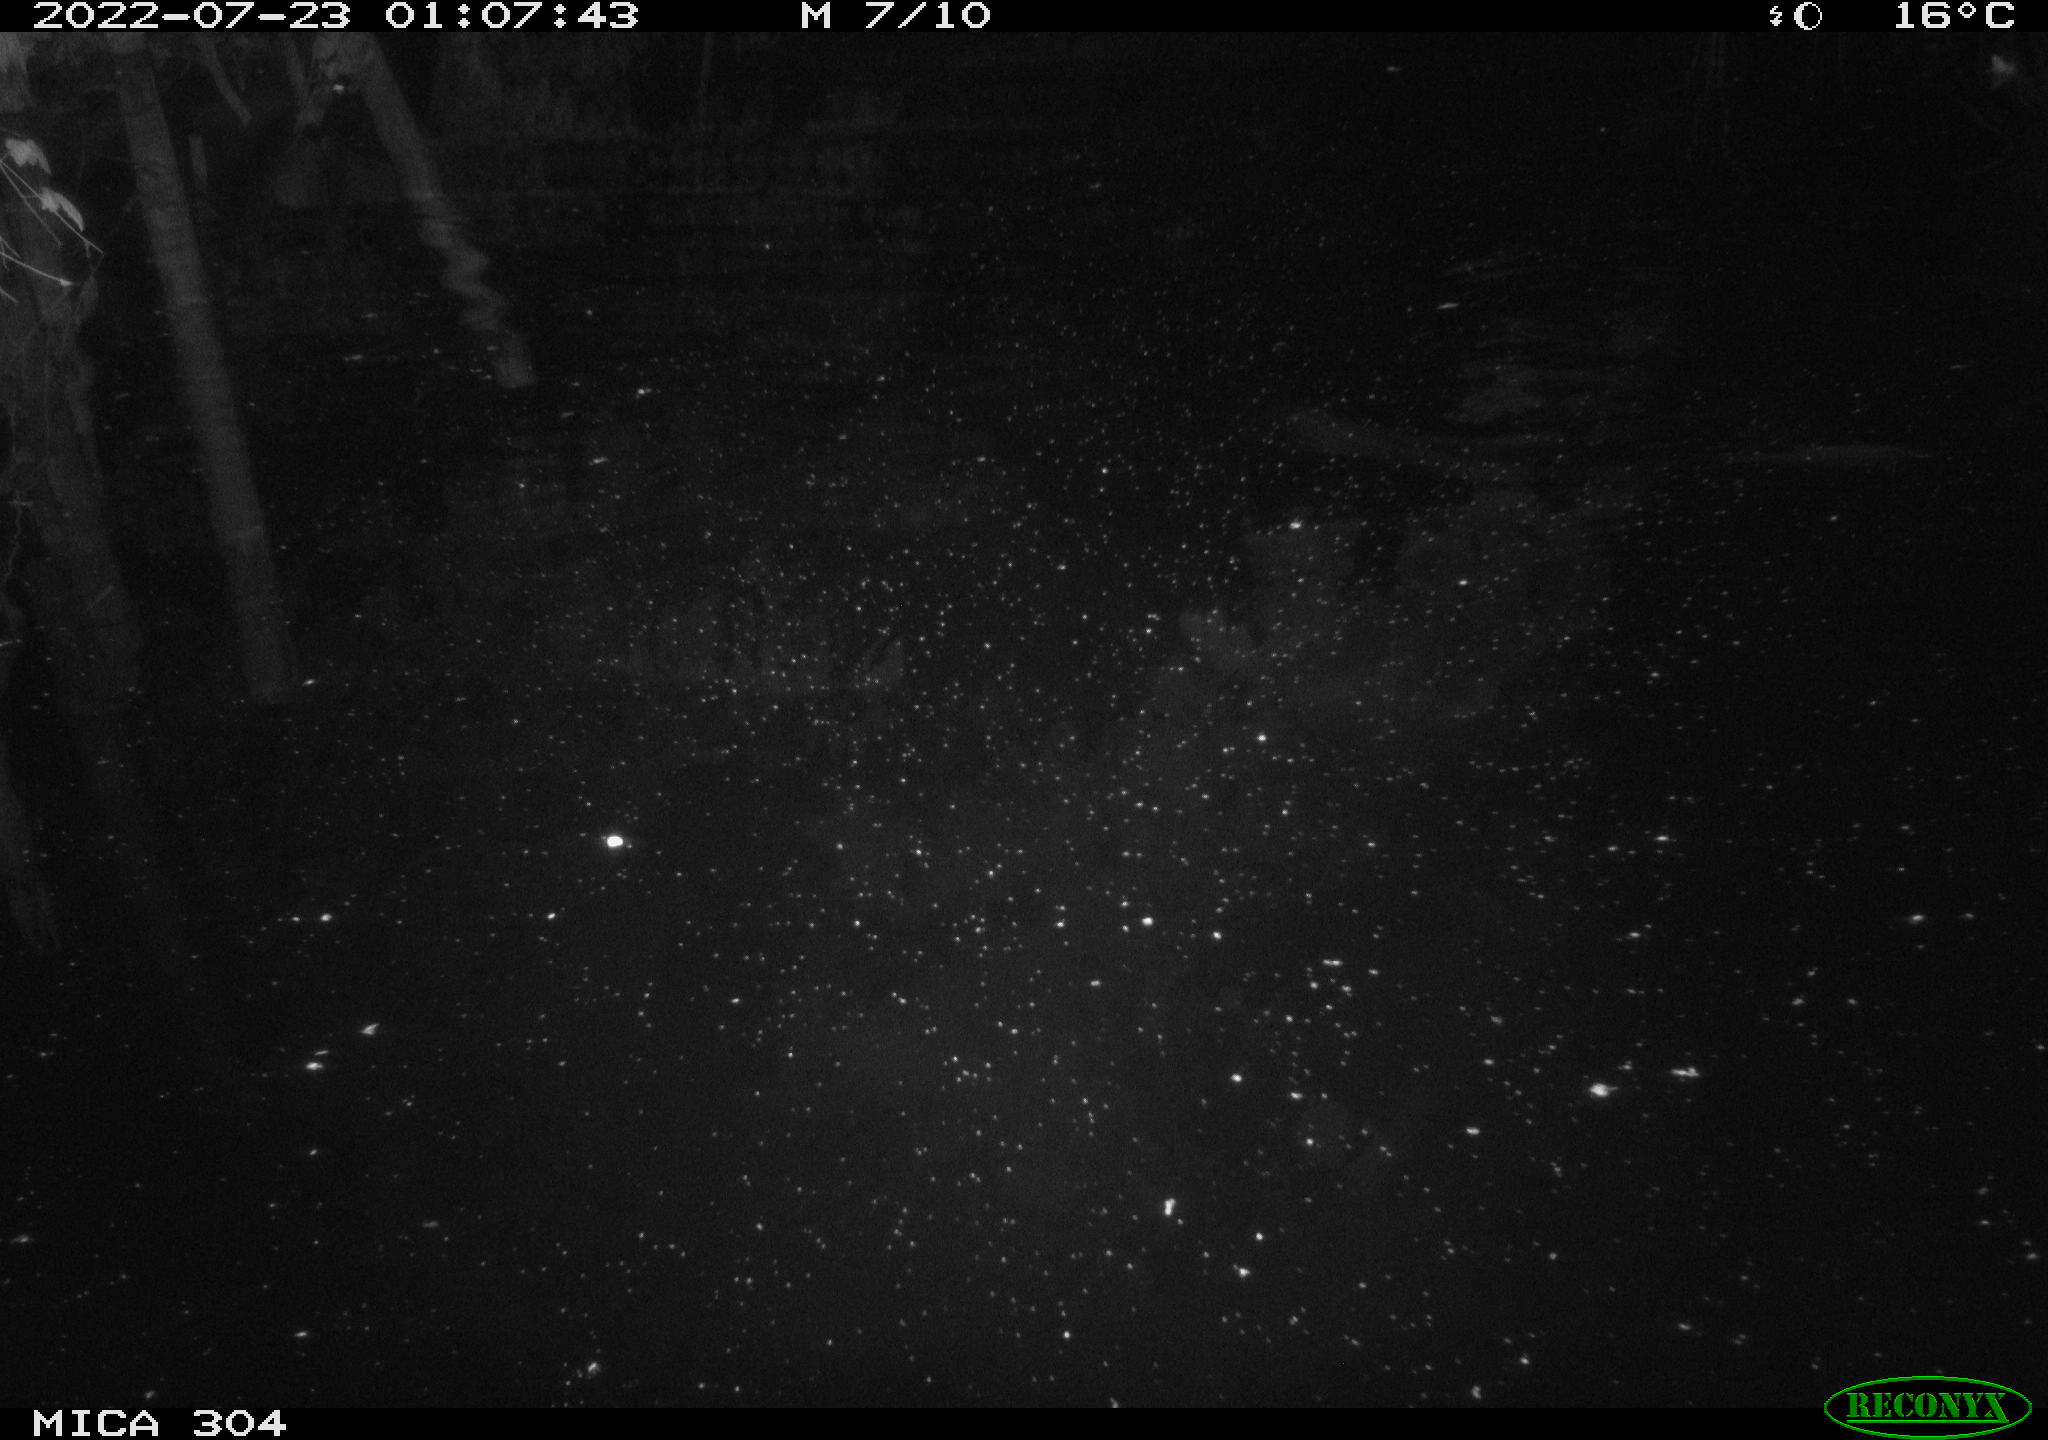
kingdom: Animalia
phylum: Chordata
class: Mammalia
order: Rodentia
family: Muridae
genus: Rattus
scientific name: Rattus norvegicus
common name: Brown rat
